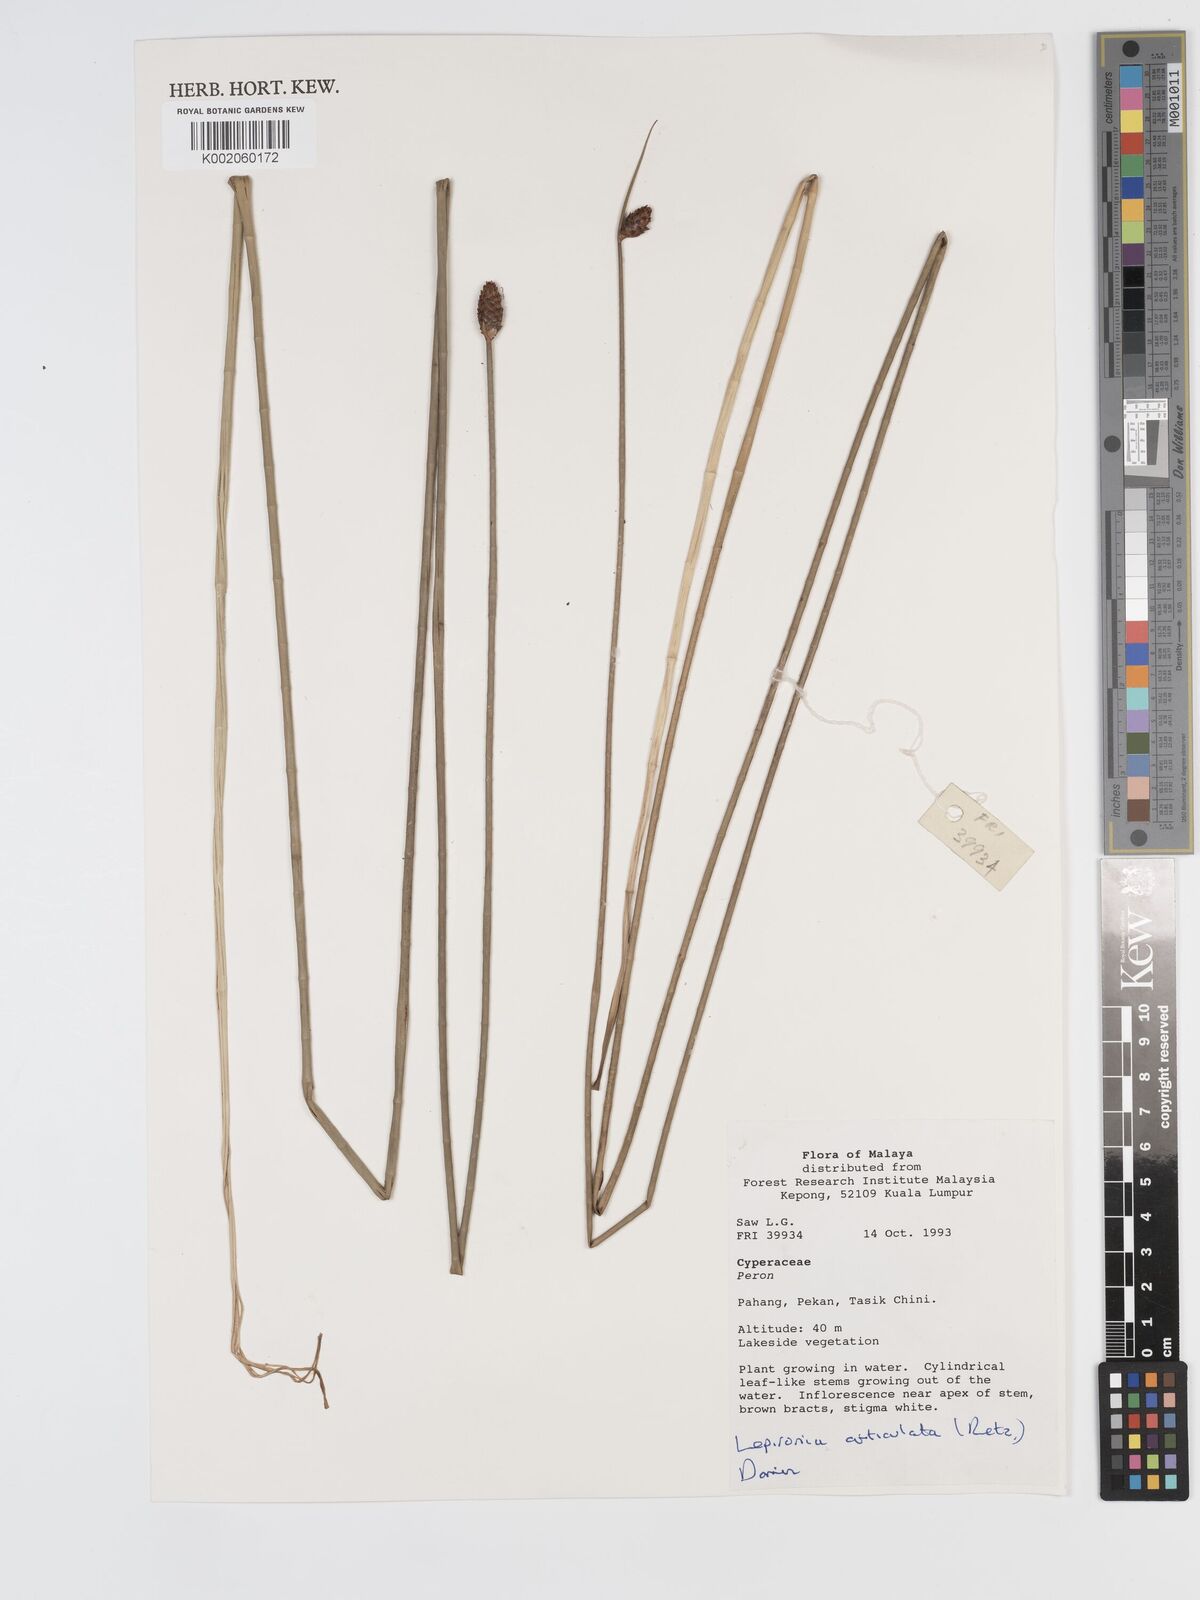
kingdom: Plantae
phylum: Tracheophyta
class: Liliopsida
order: Poales
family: Cyperaceae
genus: Lepironia
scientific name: Lepironia articulata
